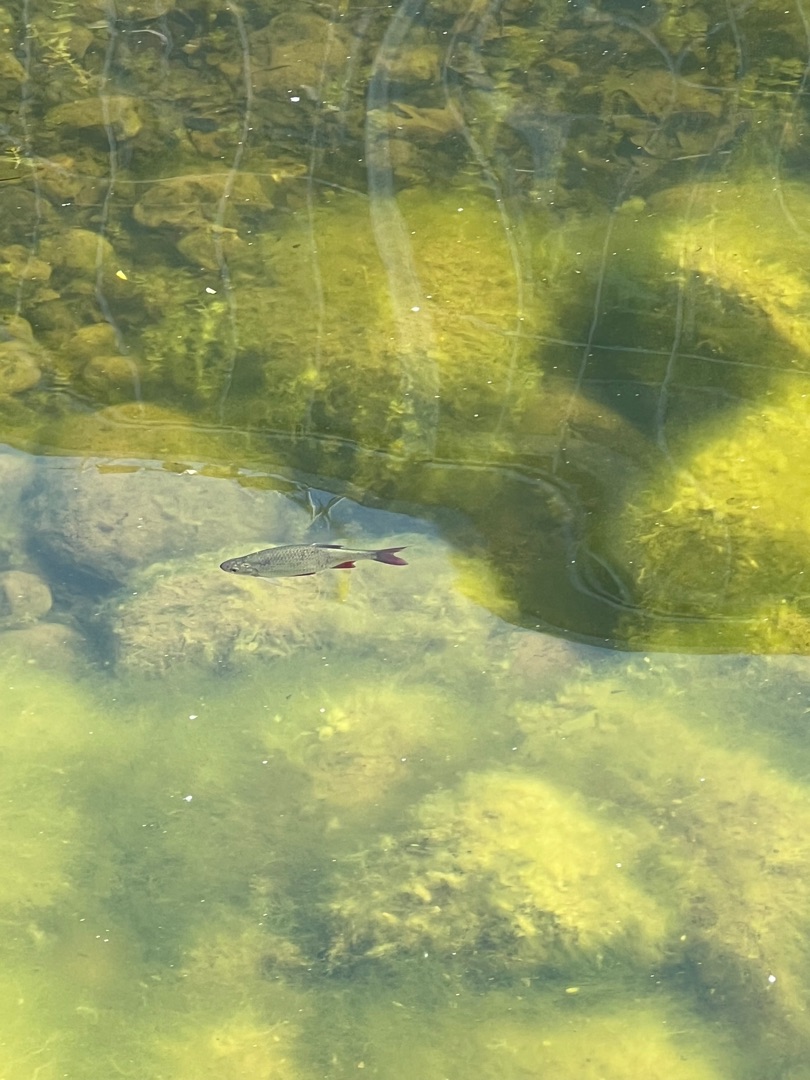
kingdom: Animalia
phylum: Chordata
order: Cypriniformes
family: Cyprinidae
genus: Scardinius
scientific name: Scardinius erythrophthalmus
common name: Rudskalle
